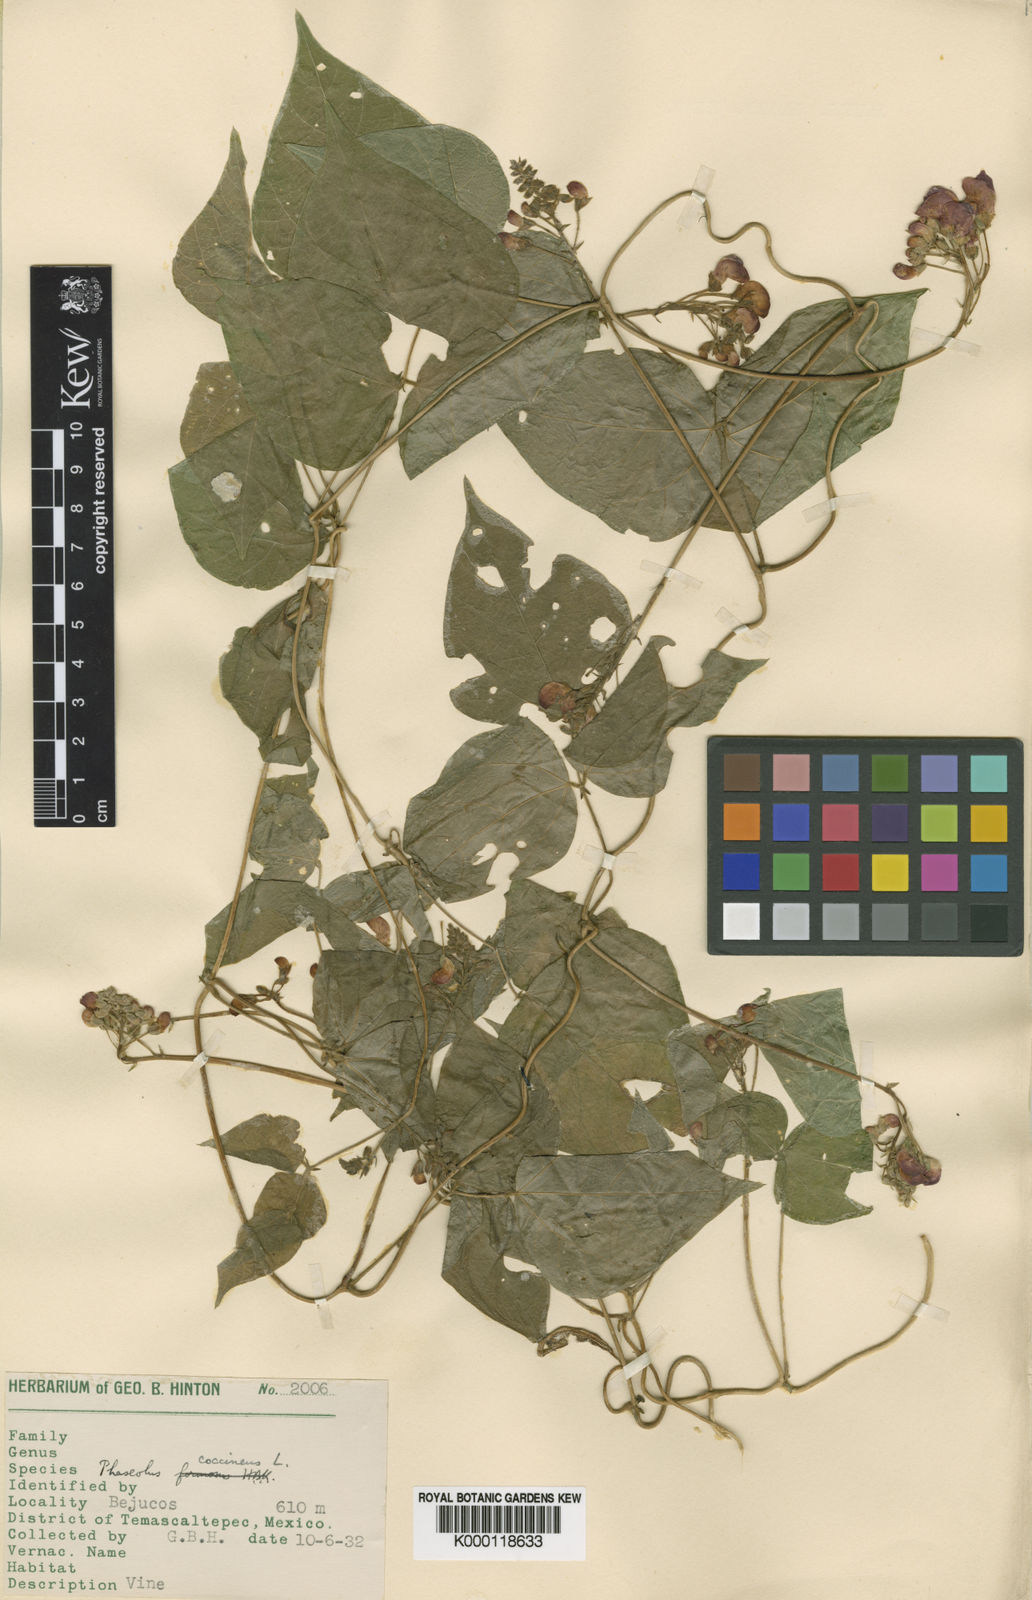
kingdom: Plantae
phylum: Tracheophyta
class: Magnoliopsida
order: Fabales
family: Fabaceae
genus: Phaseolus
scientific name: Phaseolus coccineus
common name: Runner bean
